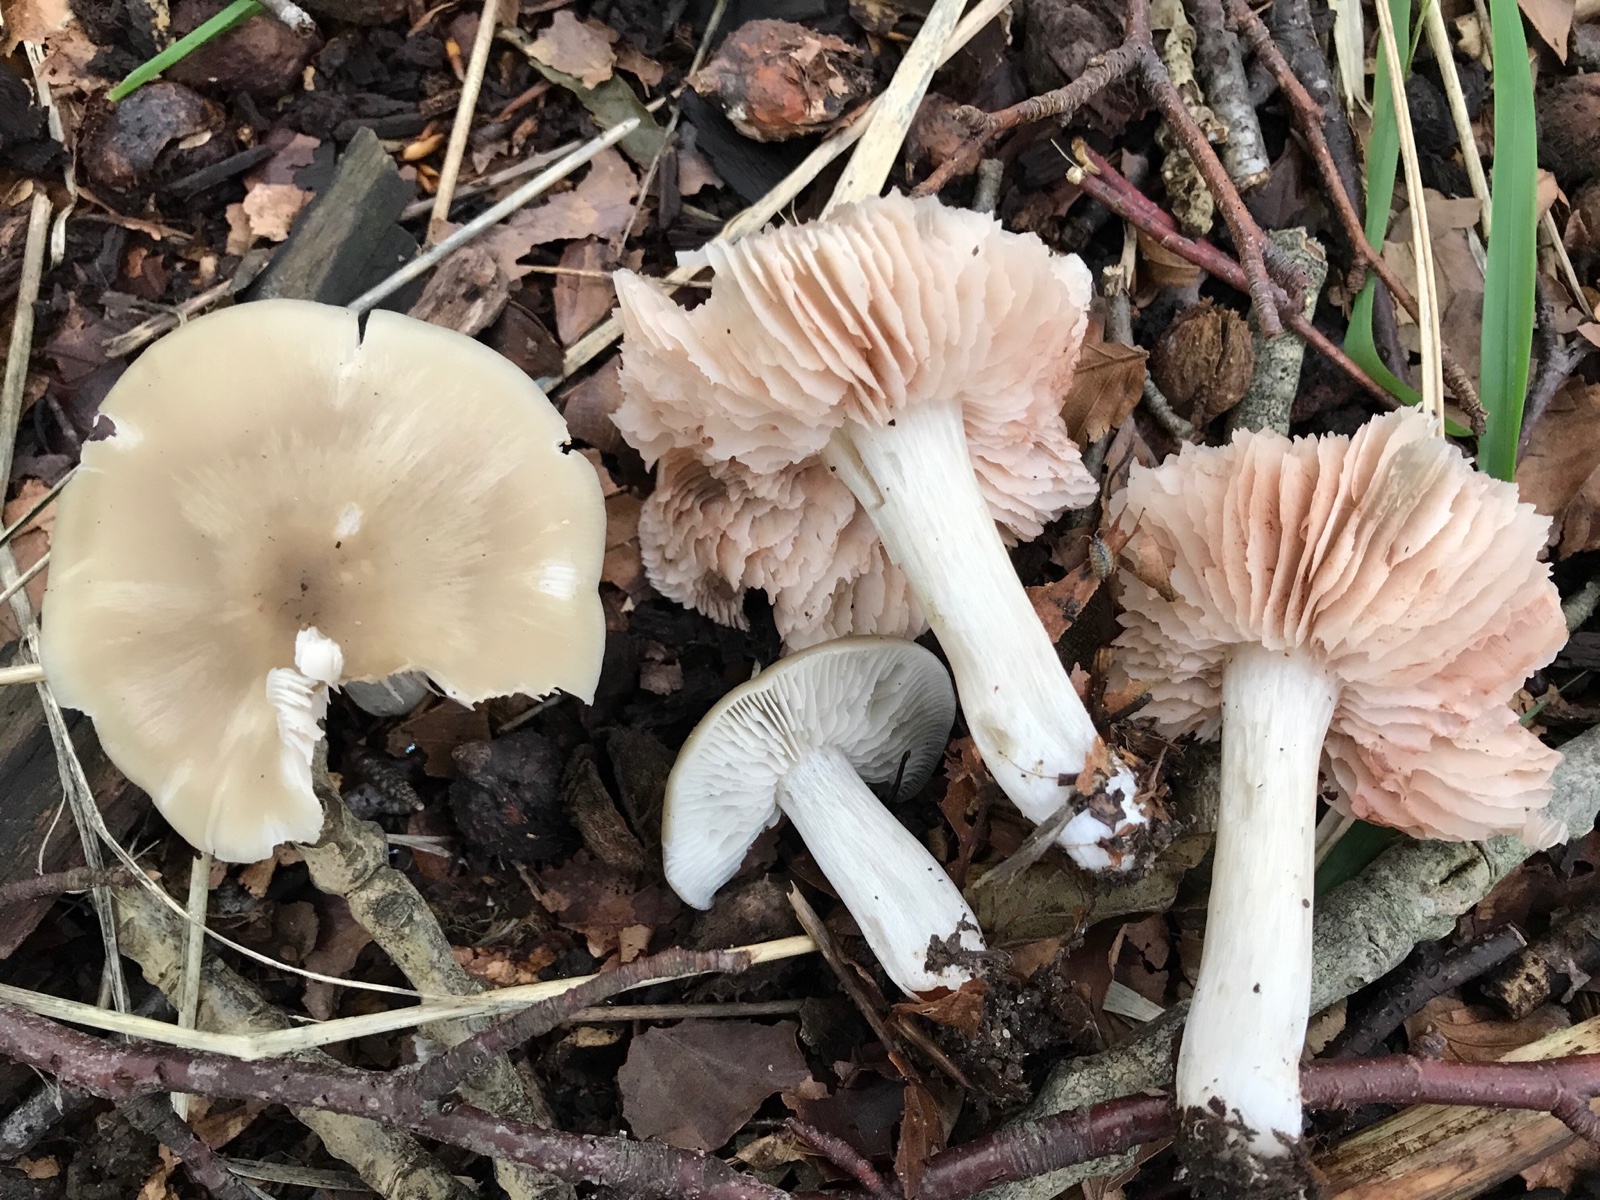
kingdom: Fungi
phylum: Basidiomycota
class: Agaricomycetes
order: Agaricales
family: Entolomataceae
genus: Entoloma
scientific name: Entoloma rhodopolium
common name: skov-rødblad
